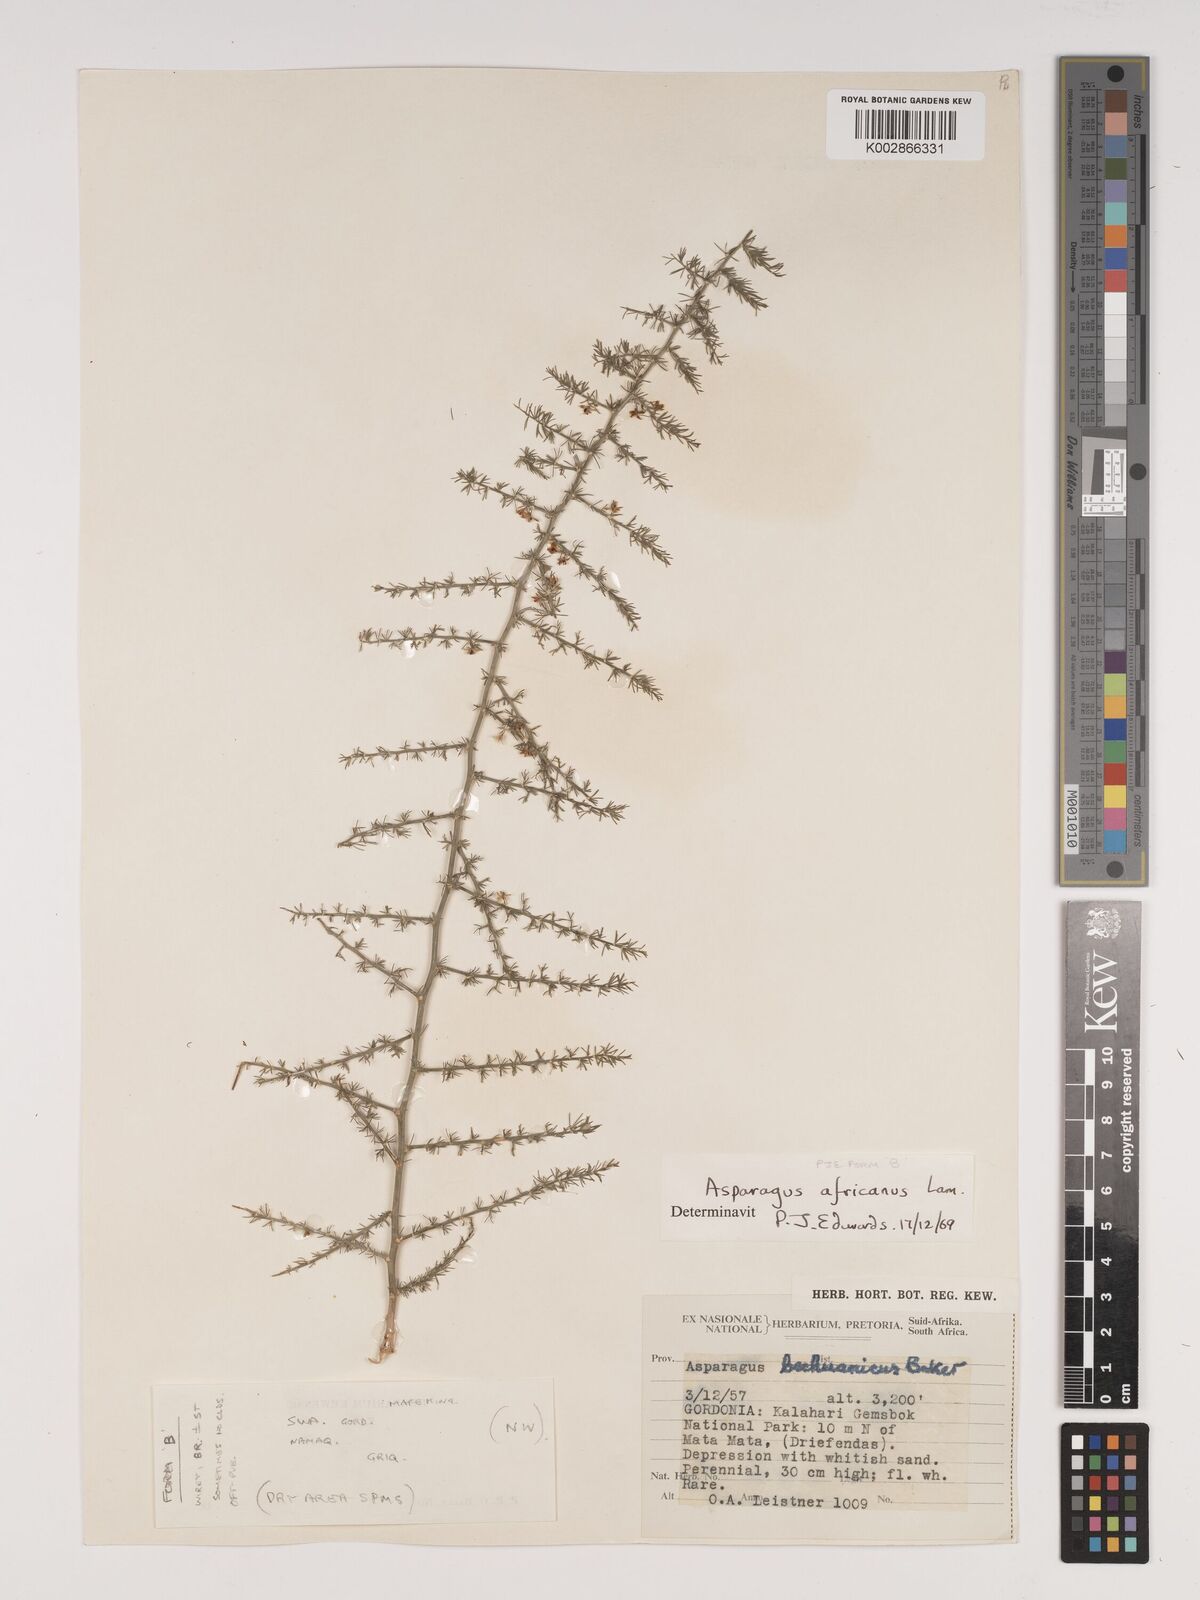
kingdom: Plantae
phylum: Tracheophyta
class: Liliopsida
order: Asparagales
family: Asparagaceae
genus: Asparagus
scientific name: Asparagus africanus
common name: Asparagus-fern
